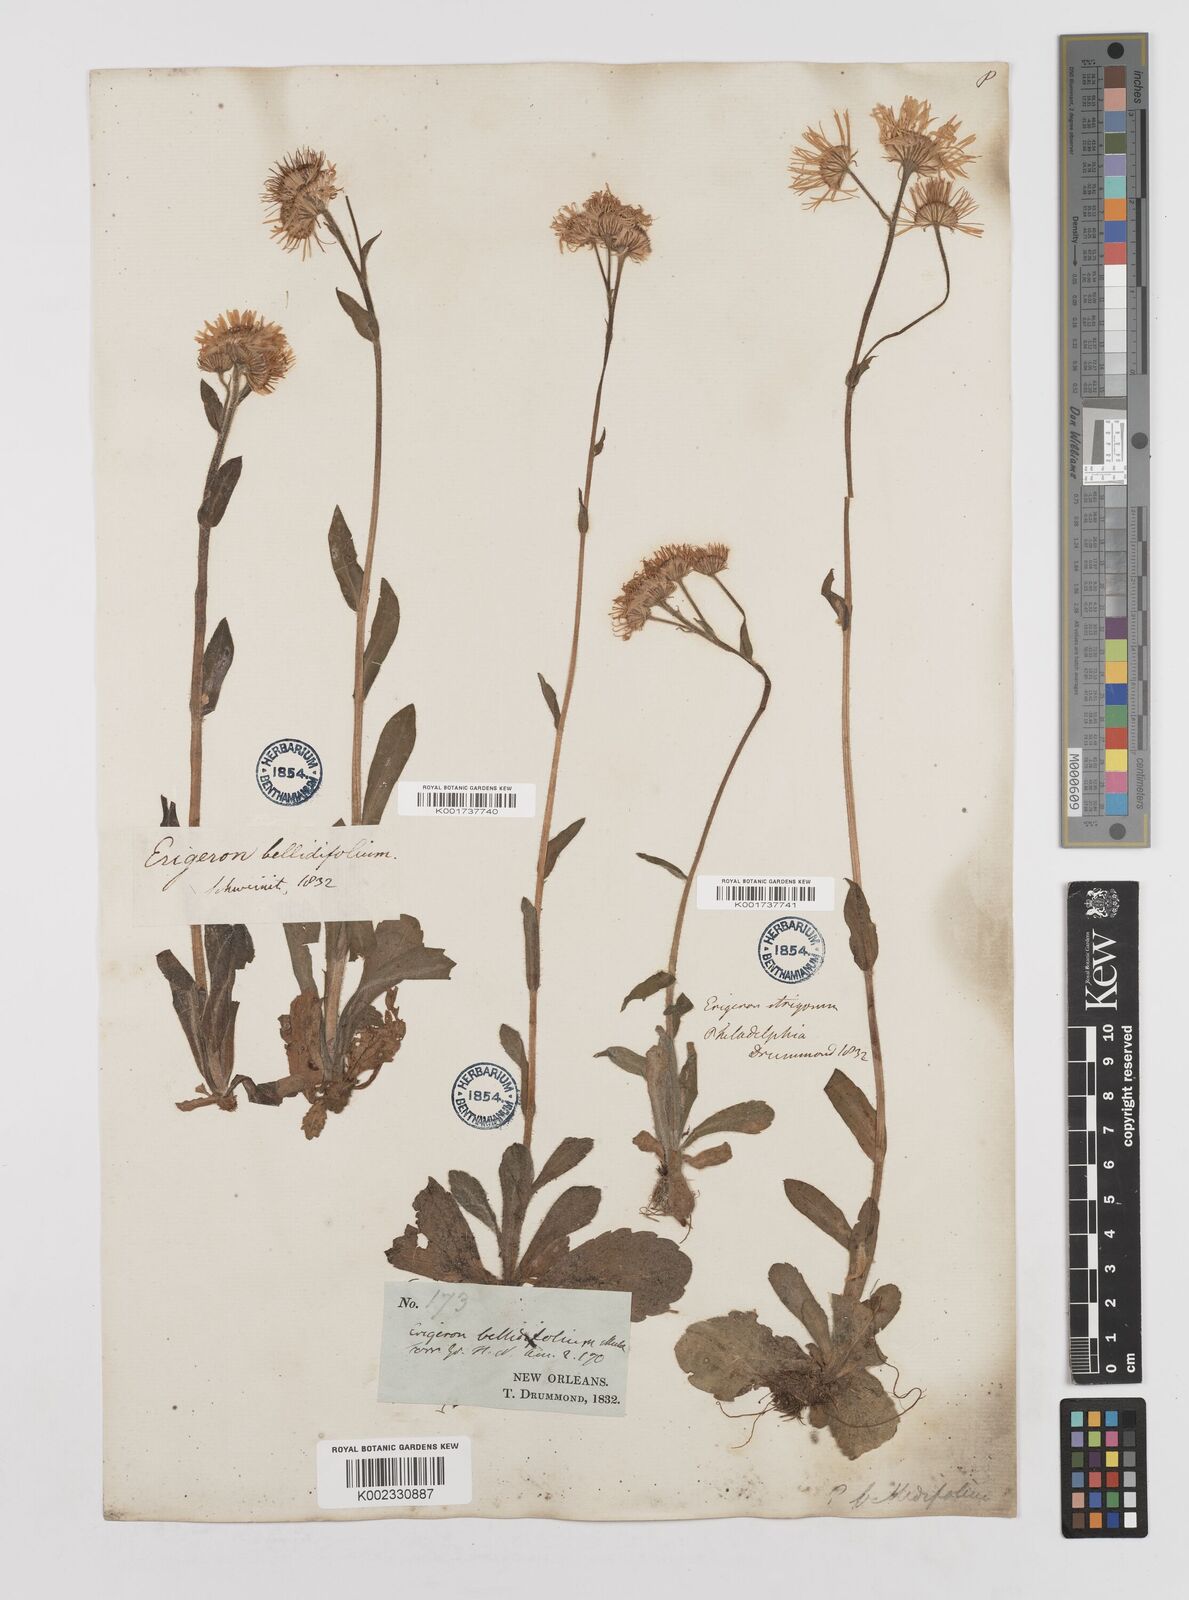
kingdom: Plantae
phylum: Tracheophyta
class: Magnoliopsida
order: Asterales
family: Asteraceae
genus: Erigeron
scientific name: Erigeron pulchellus
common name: Hairy fleabane
